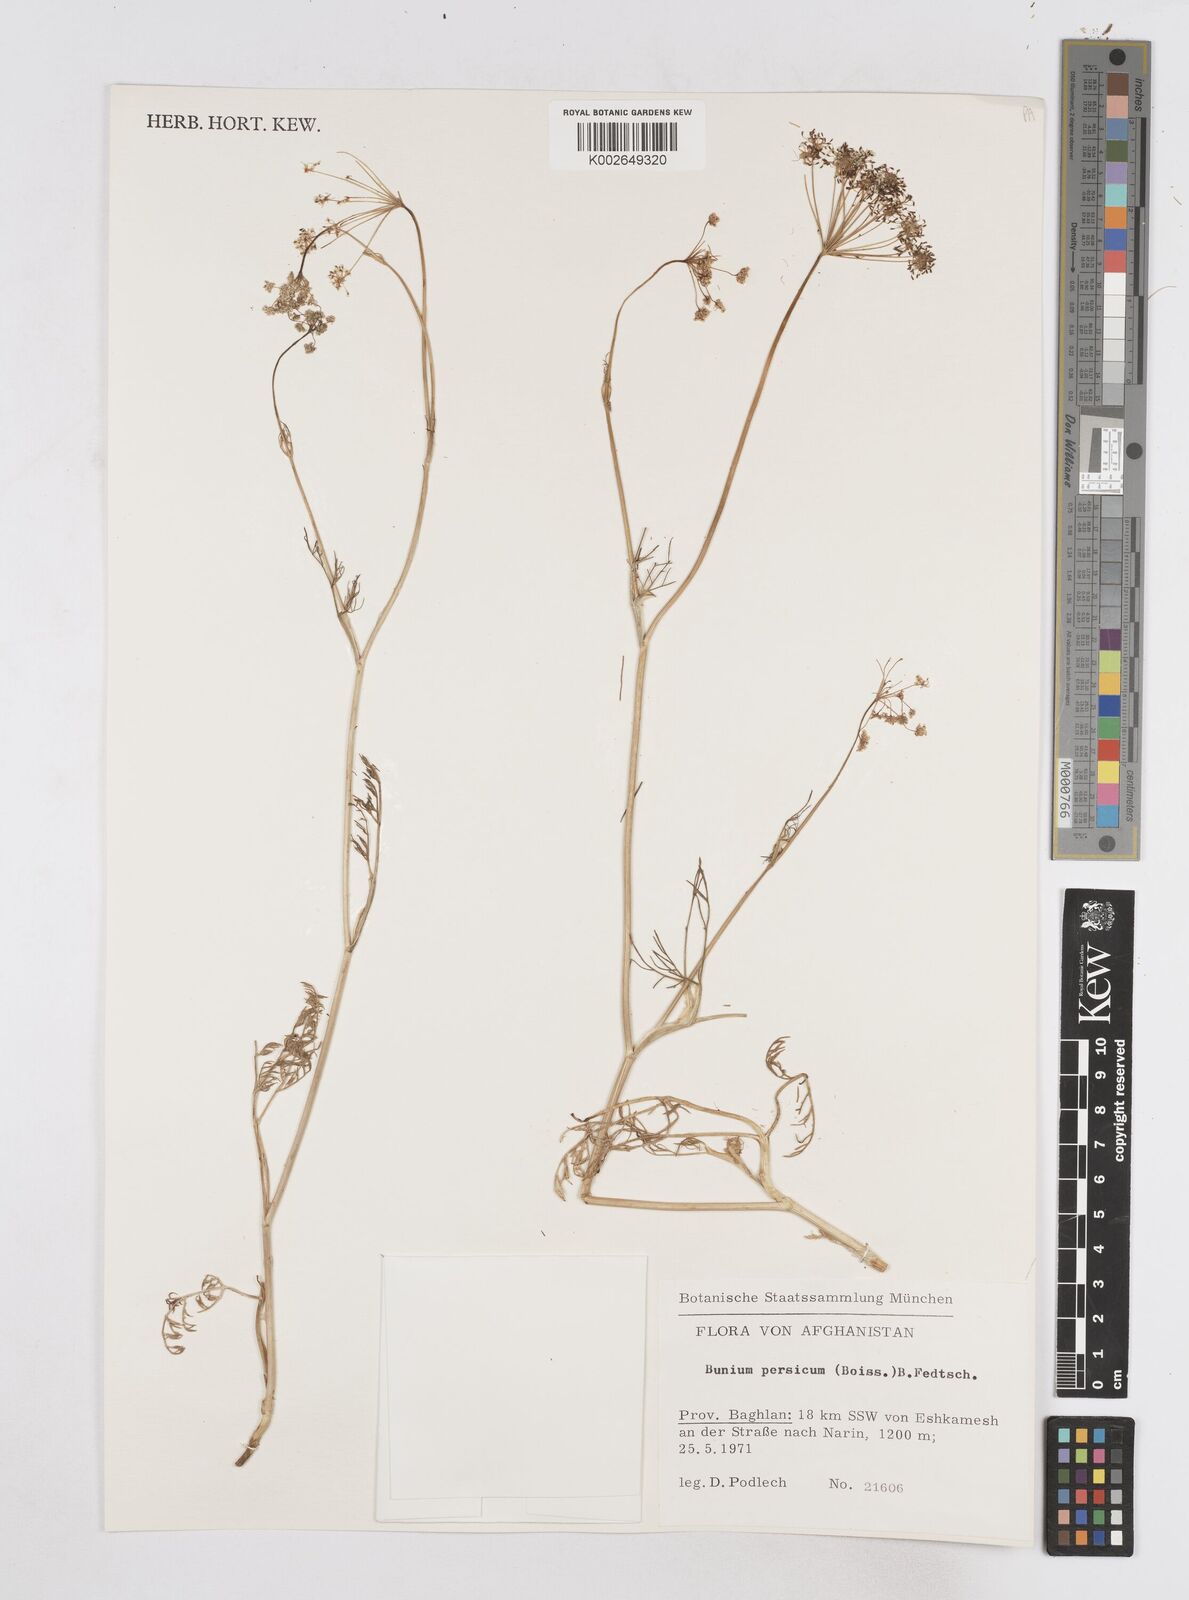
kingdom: Plantae
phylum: Tracheophyta
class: Magnoliopsida
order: Apiales
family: Apiaceae
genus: Elwendia
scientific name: Elwendia persica
